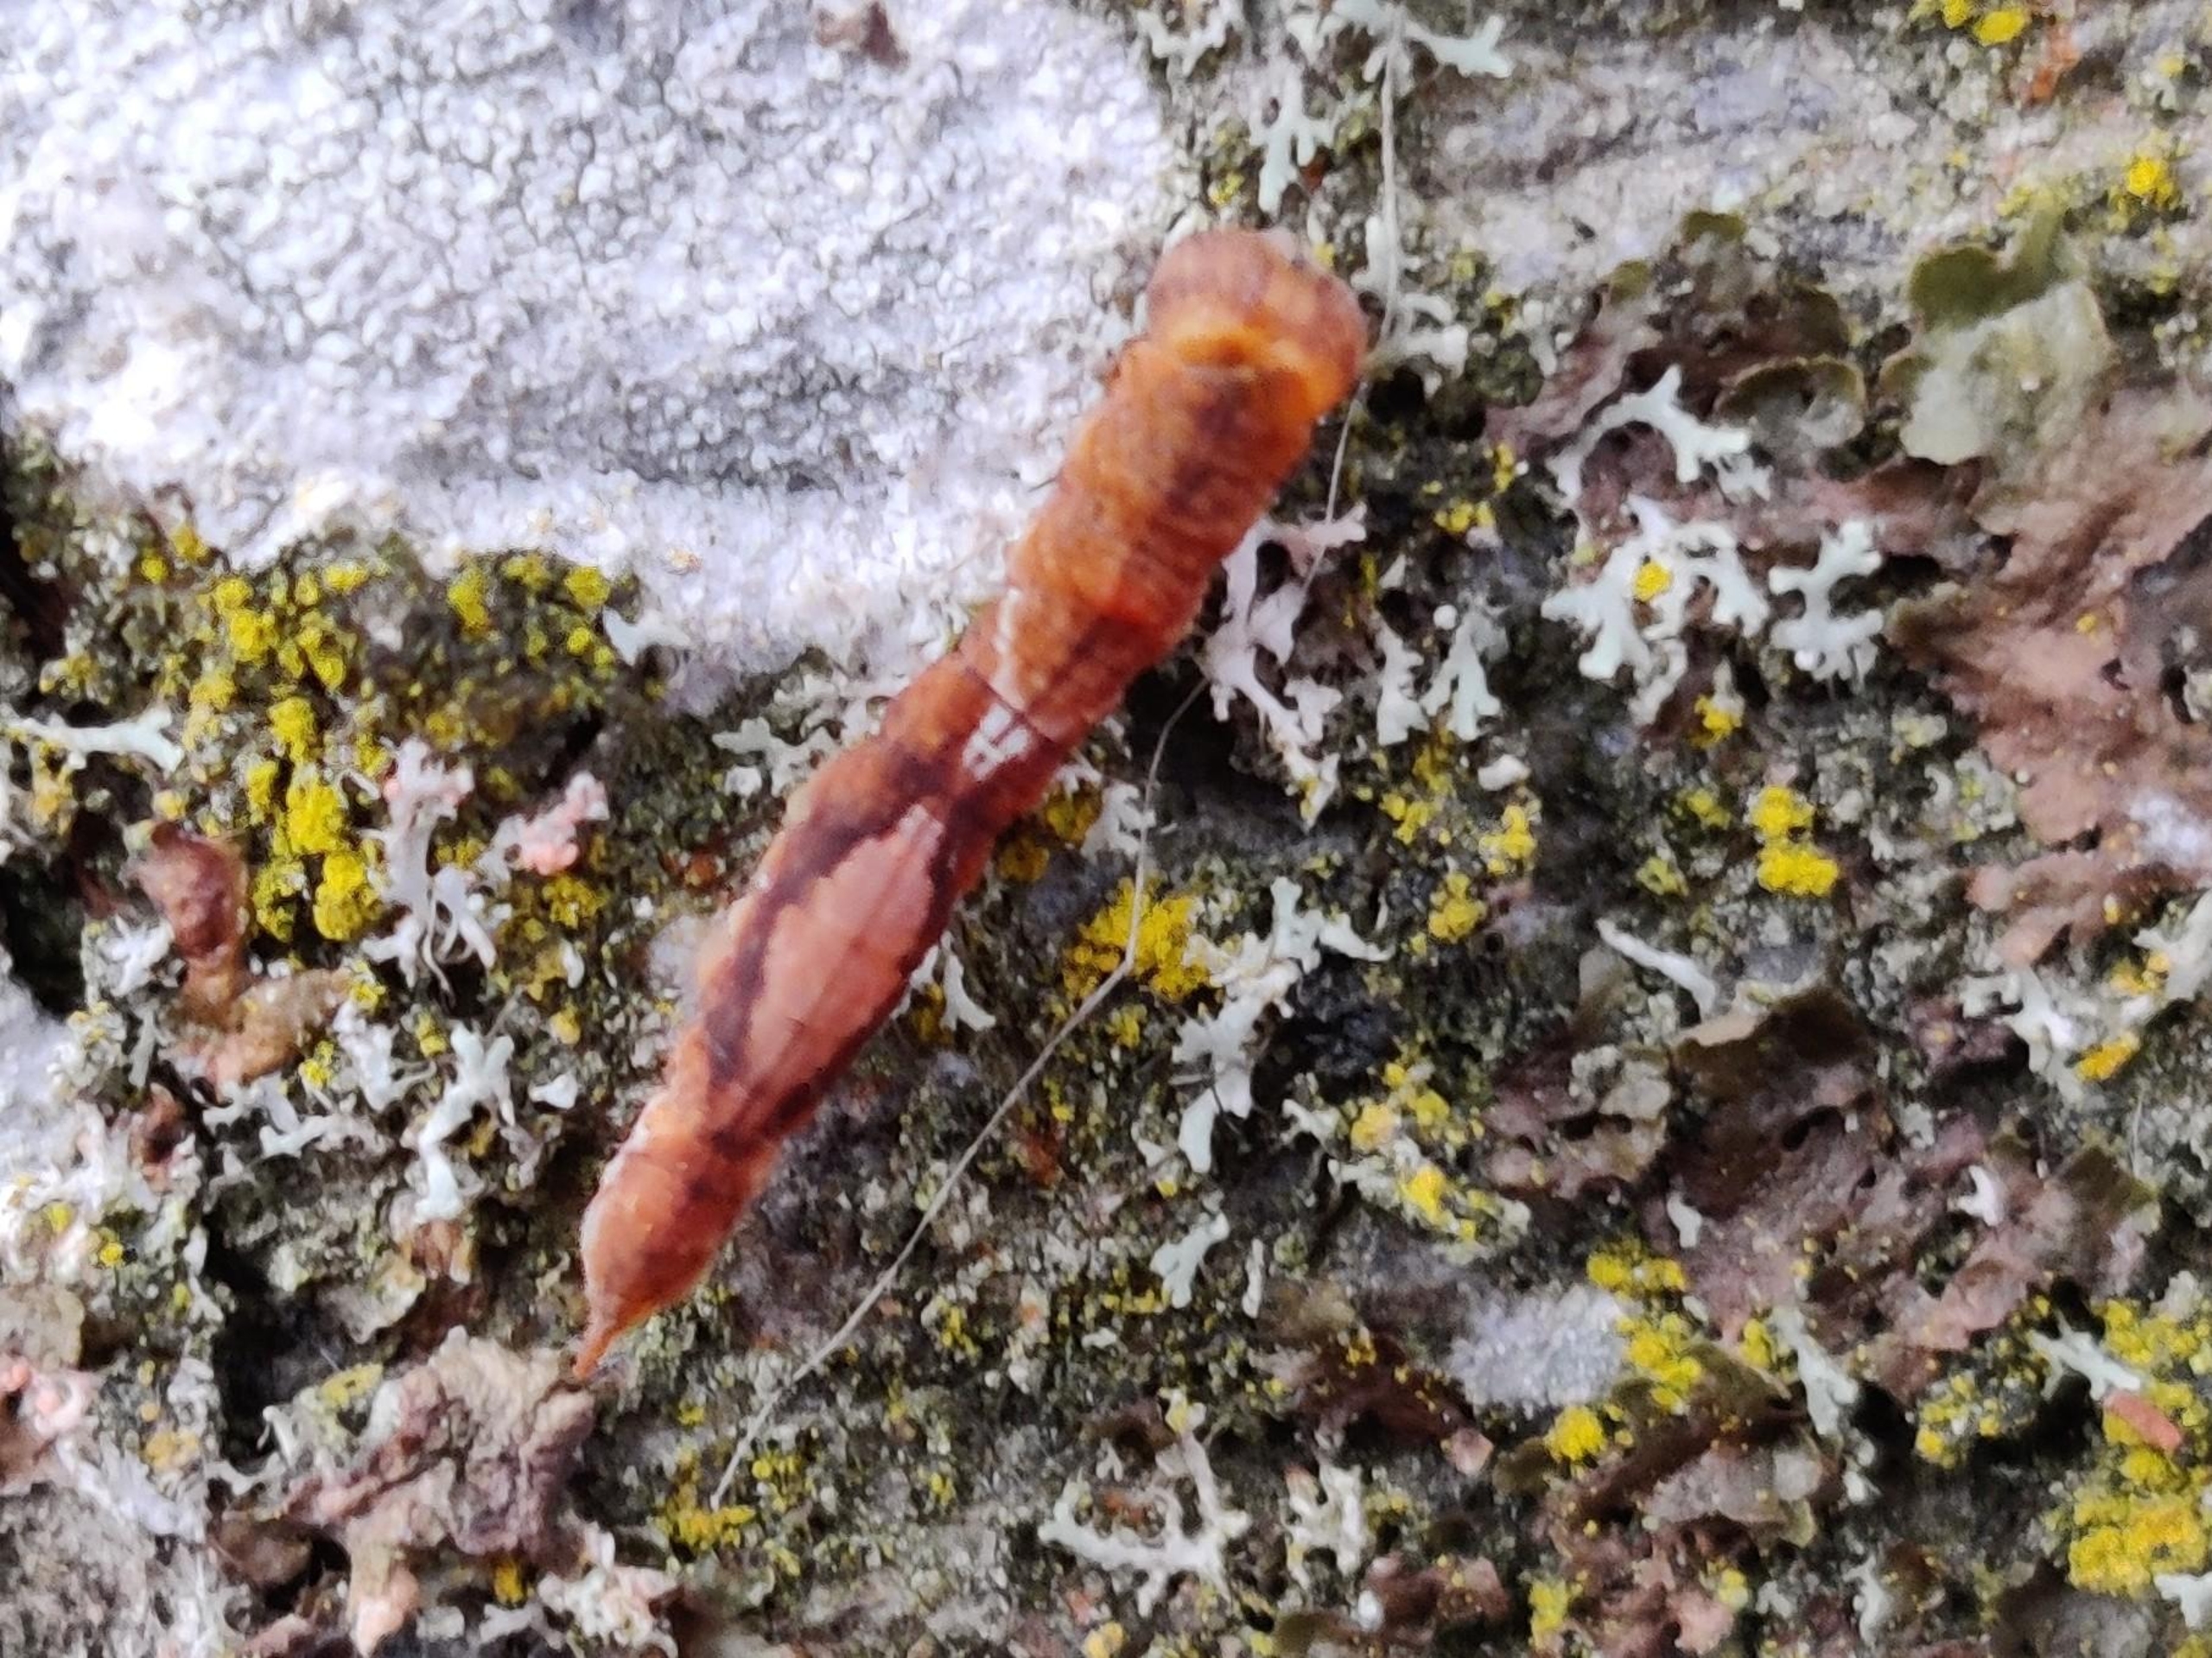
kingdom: Animalia
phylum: Arthropoda
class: Insecta
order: Lepidoptera
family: Drepanidae
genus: Watsonalla
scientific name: Watsonalla cultraria
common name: Bøgeseglvinge
